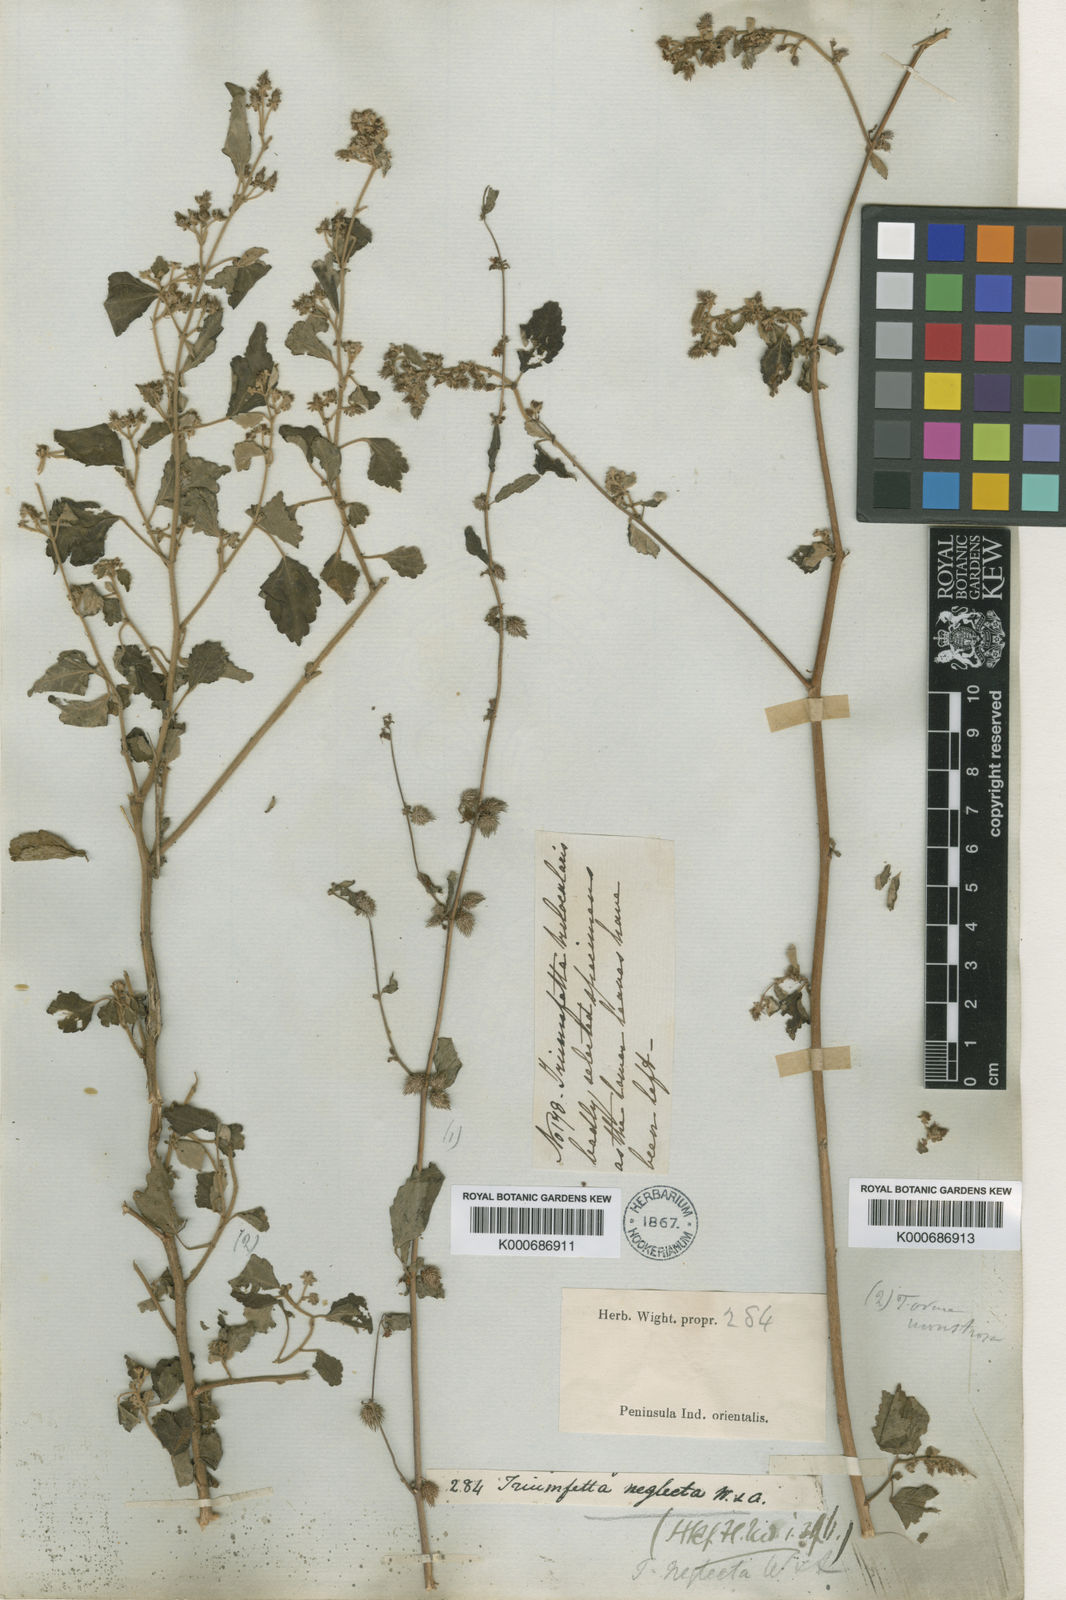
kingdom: Plantae
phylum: Tracheophyta
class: Magnoliopsida
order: Malvales
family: Malvaceae
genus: Triumfetta
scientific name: Triumfetta pentandra
